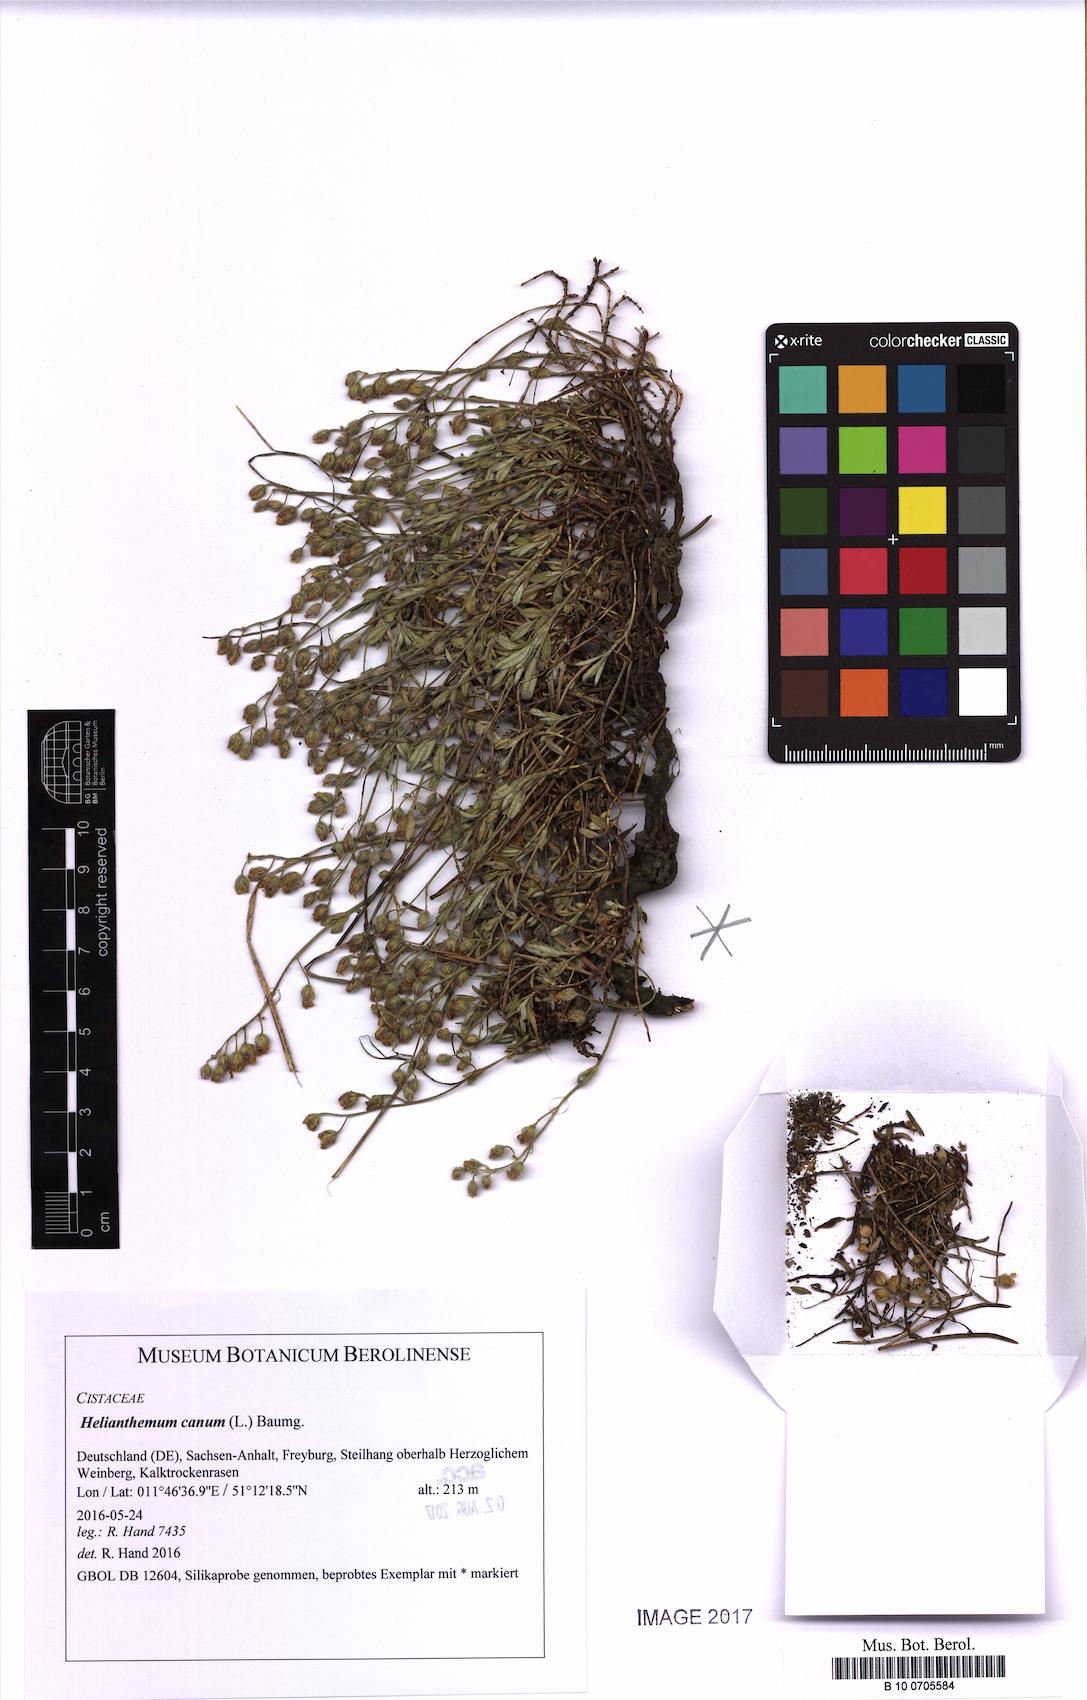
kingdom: Plantae
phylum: Tracheophyta
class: Magnoliopsida
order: Malvales
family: Cistaceae
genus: Helianthemum
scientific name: Helianthemum canum
